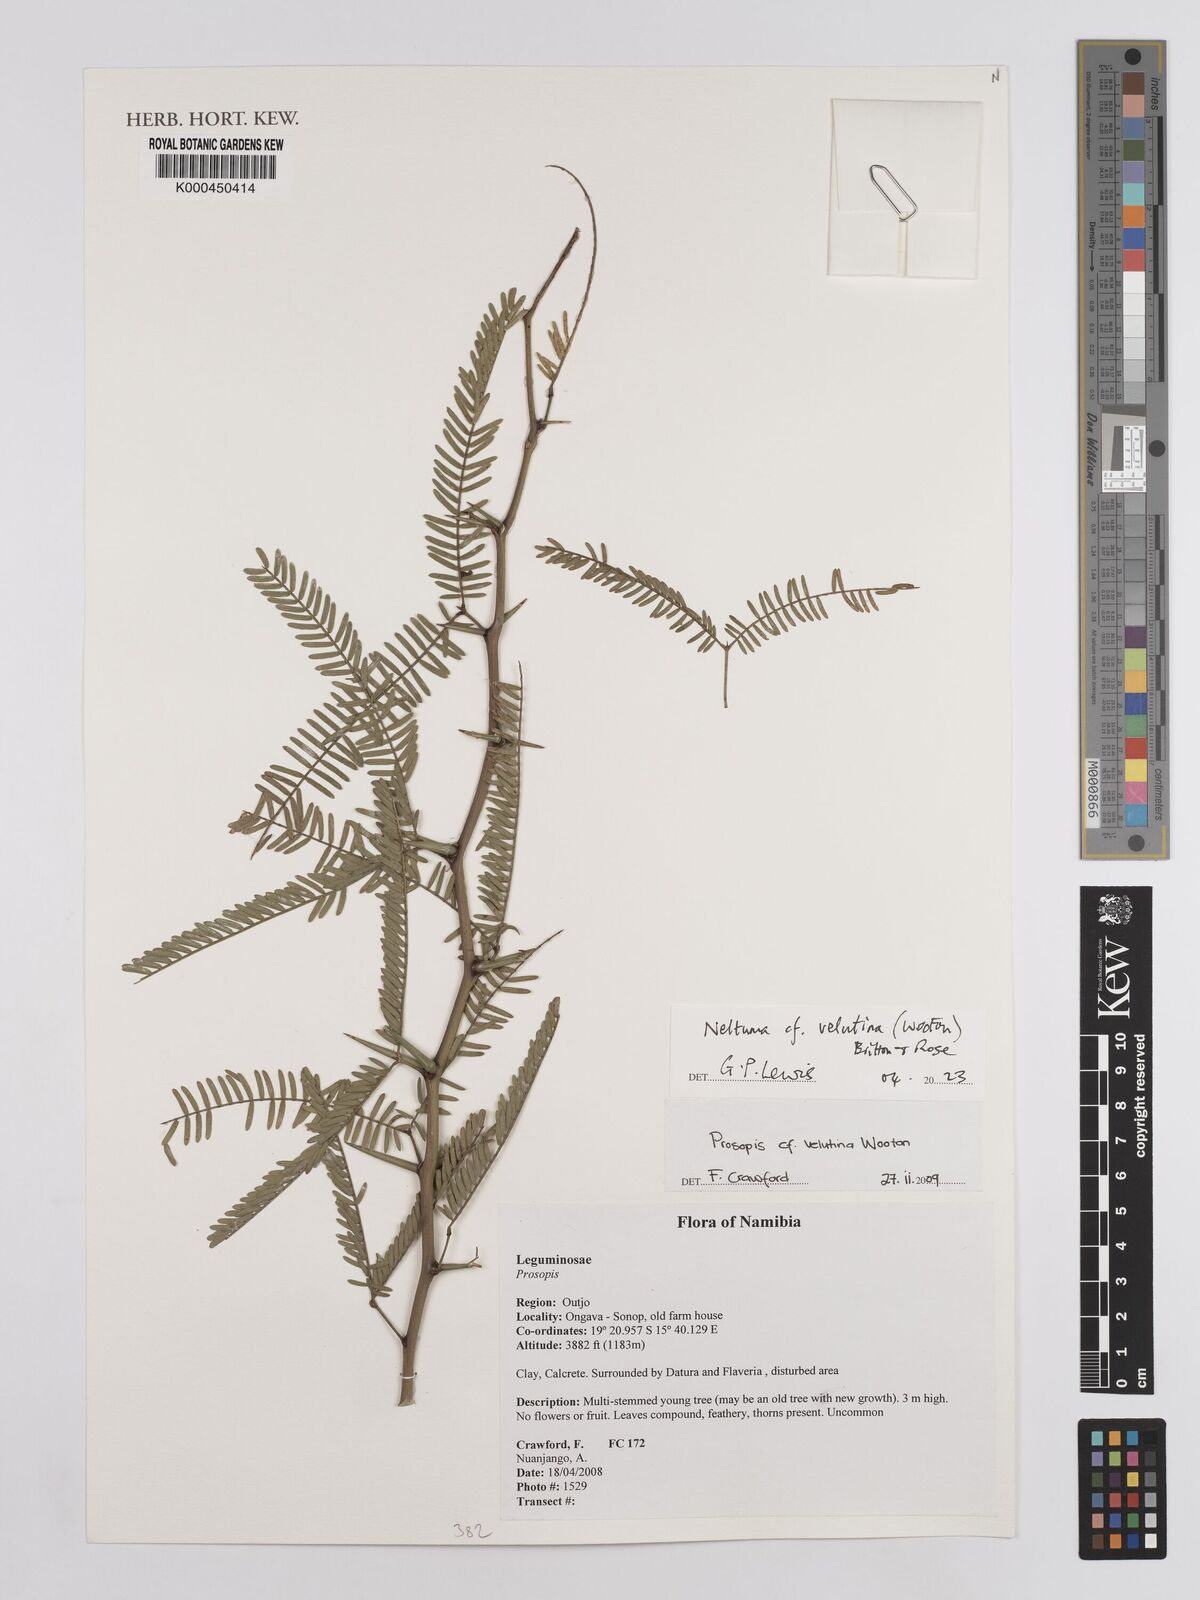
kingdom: Plantae
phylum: Tracheophyta
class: Magnoliopsida
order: Fabales
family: Fabaceae
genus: Prosopis
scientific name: Prosopis velutina
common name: Velvet mesquite
